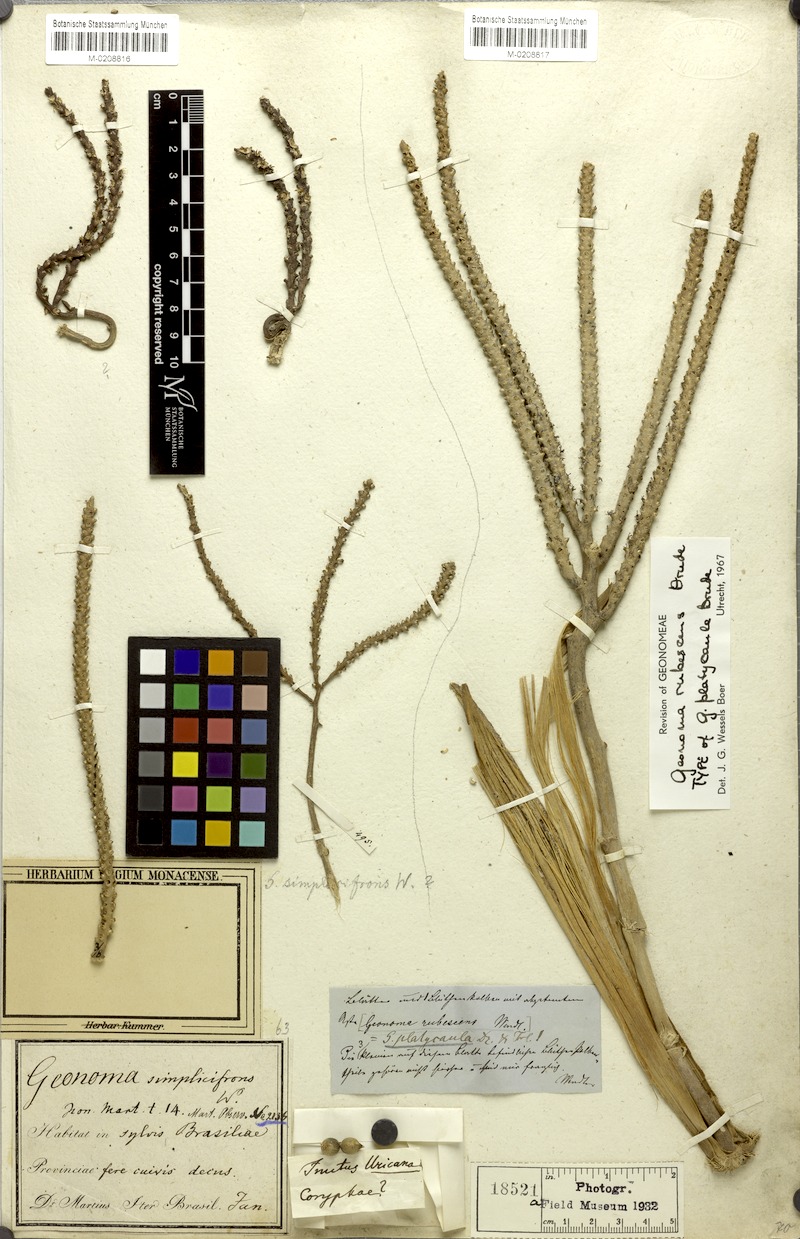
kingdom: Plantae
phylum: Tracheophyta
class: Liliopsida
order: Arecales
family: Arecaceae
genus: Geonoma
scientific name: Geonoma pohliana
